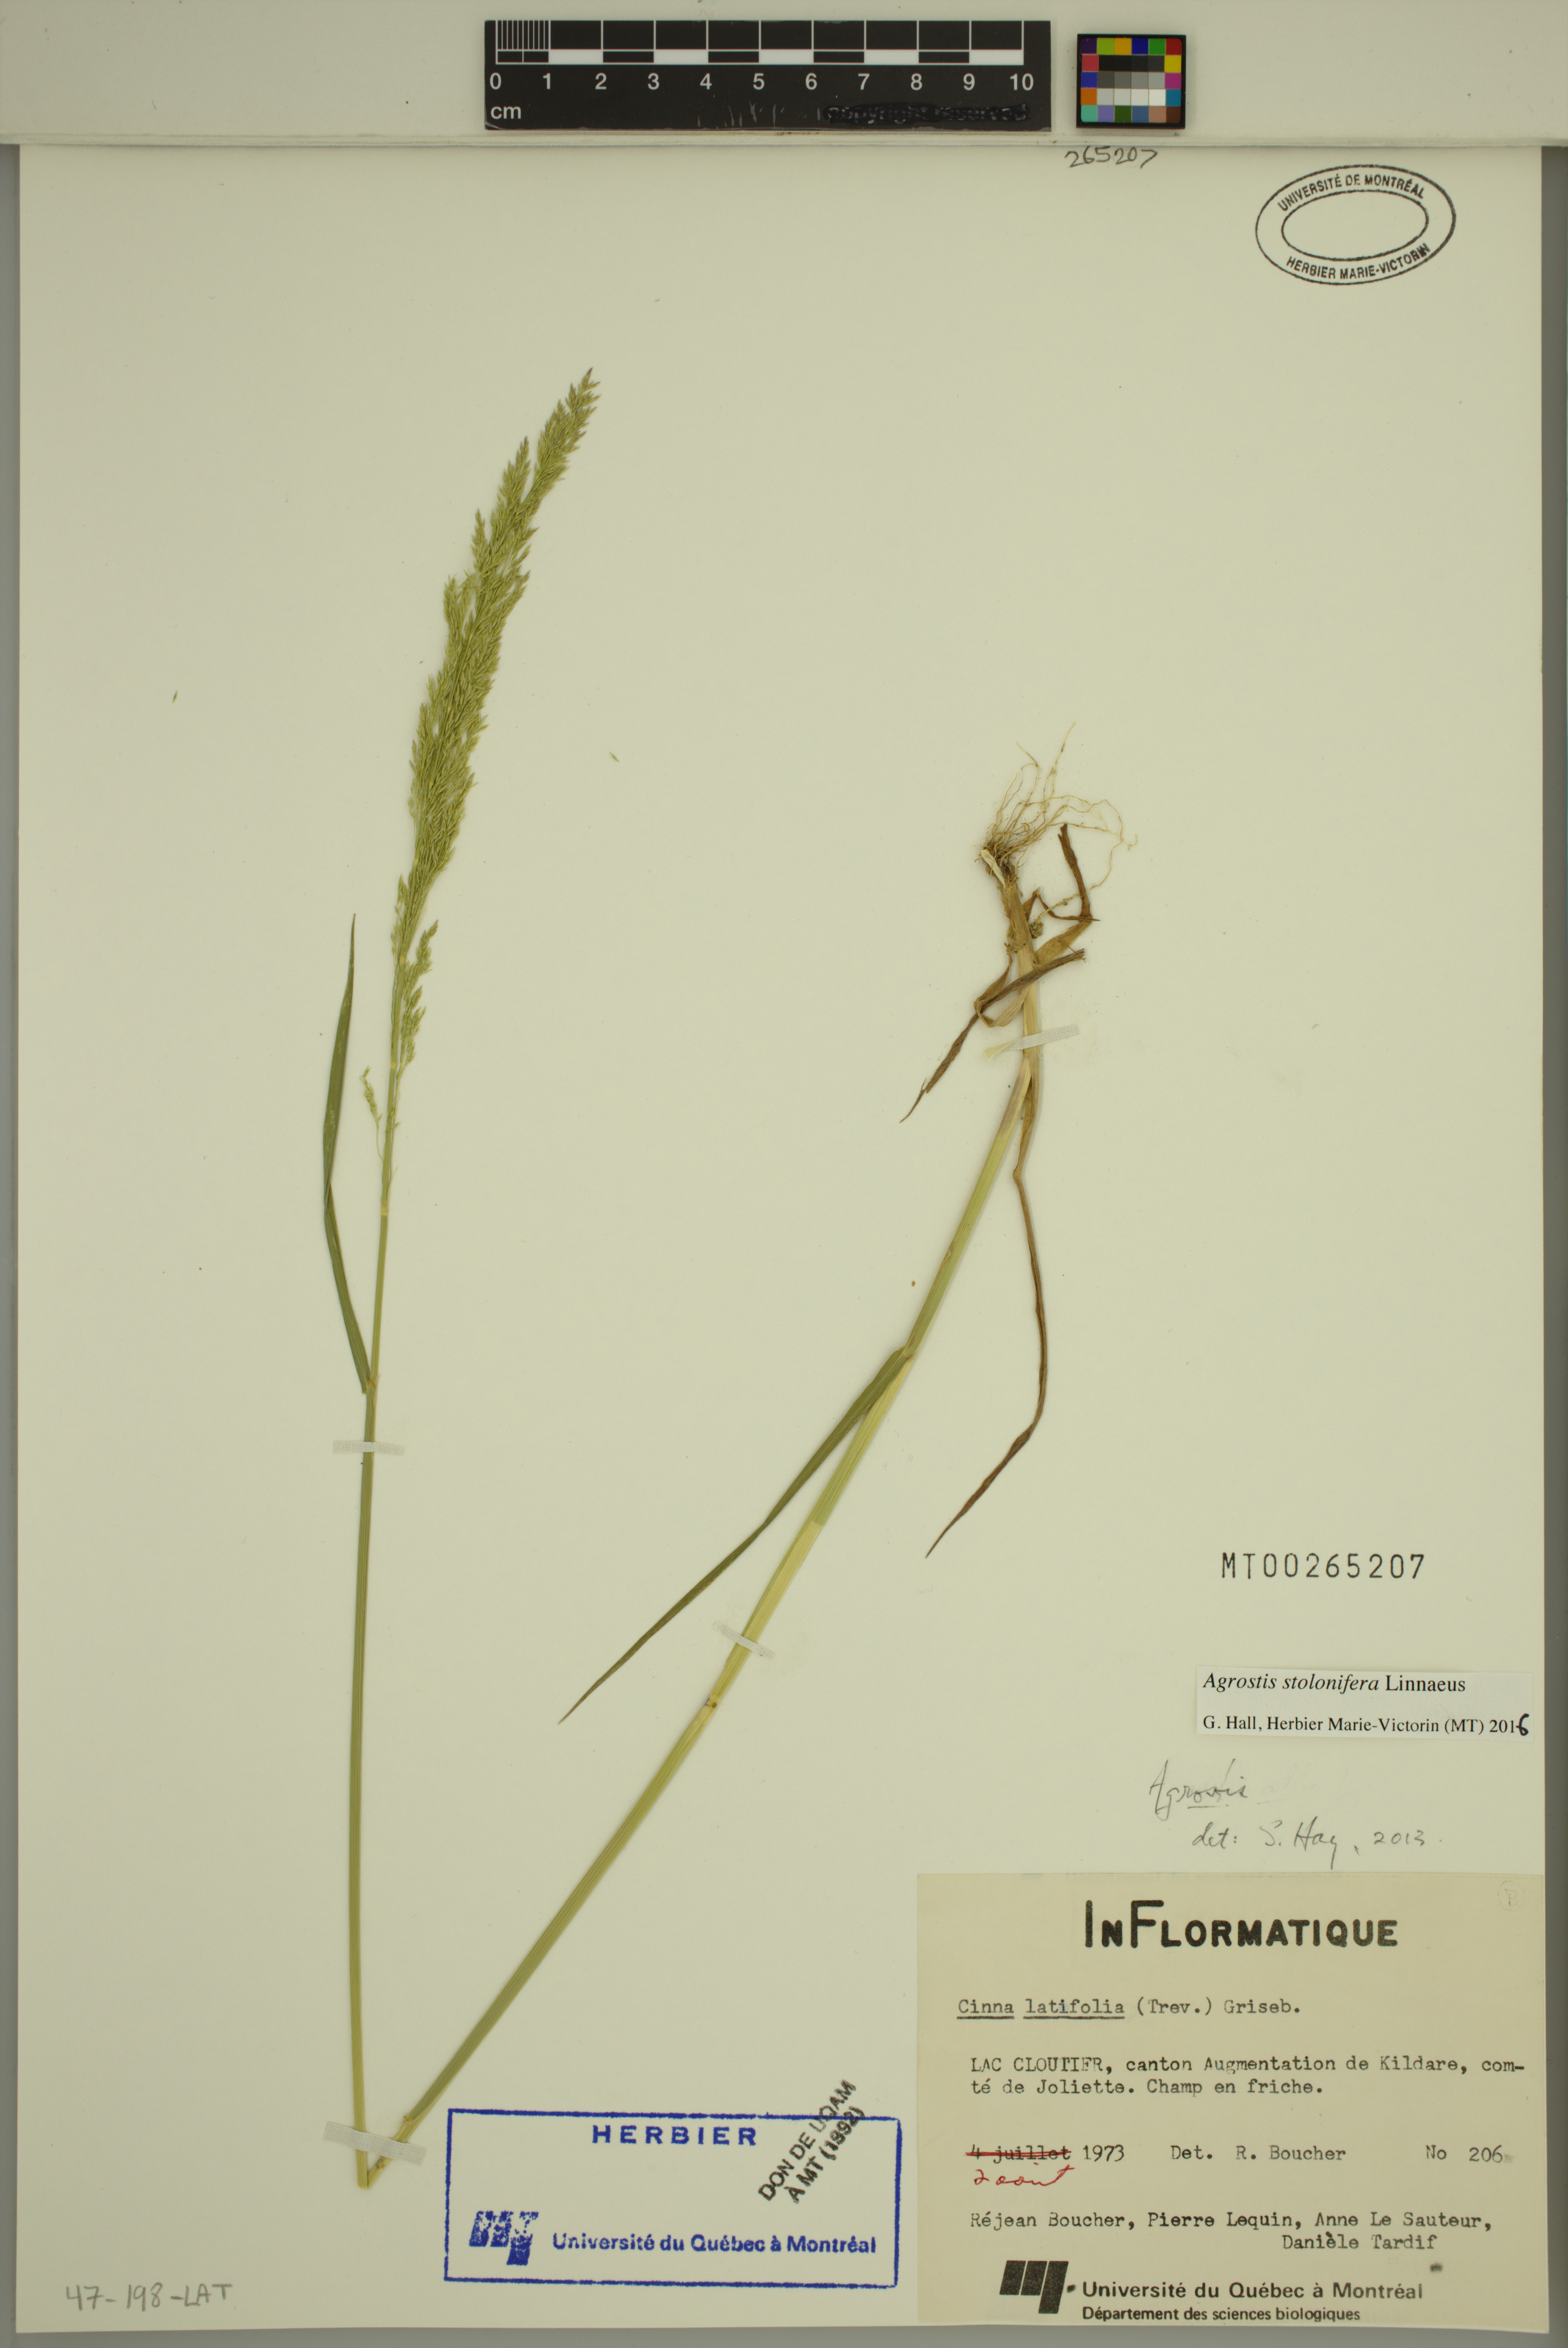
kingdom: Plantae
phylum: Tracheophyta
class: Liliopsida
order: Poales
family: Poaceae
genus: Agrostis
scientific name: Agrostis stolonifera
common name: Creeping bentgrass
